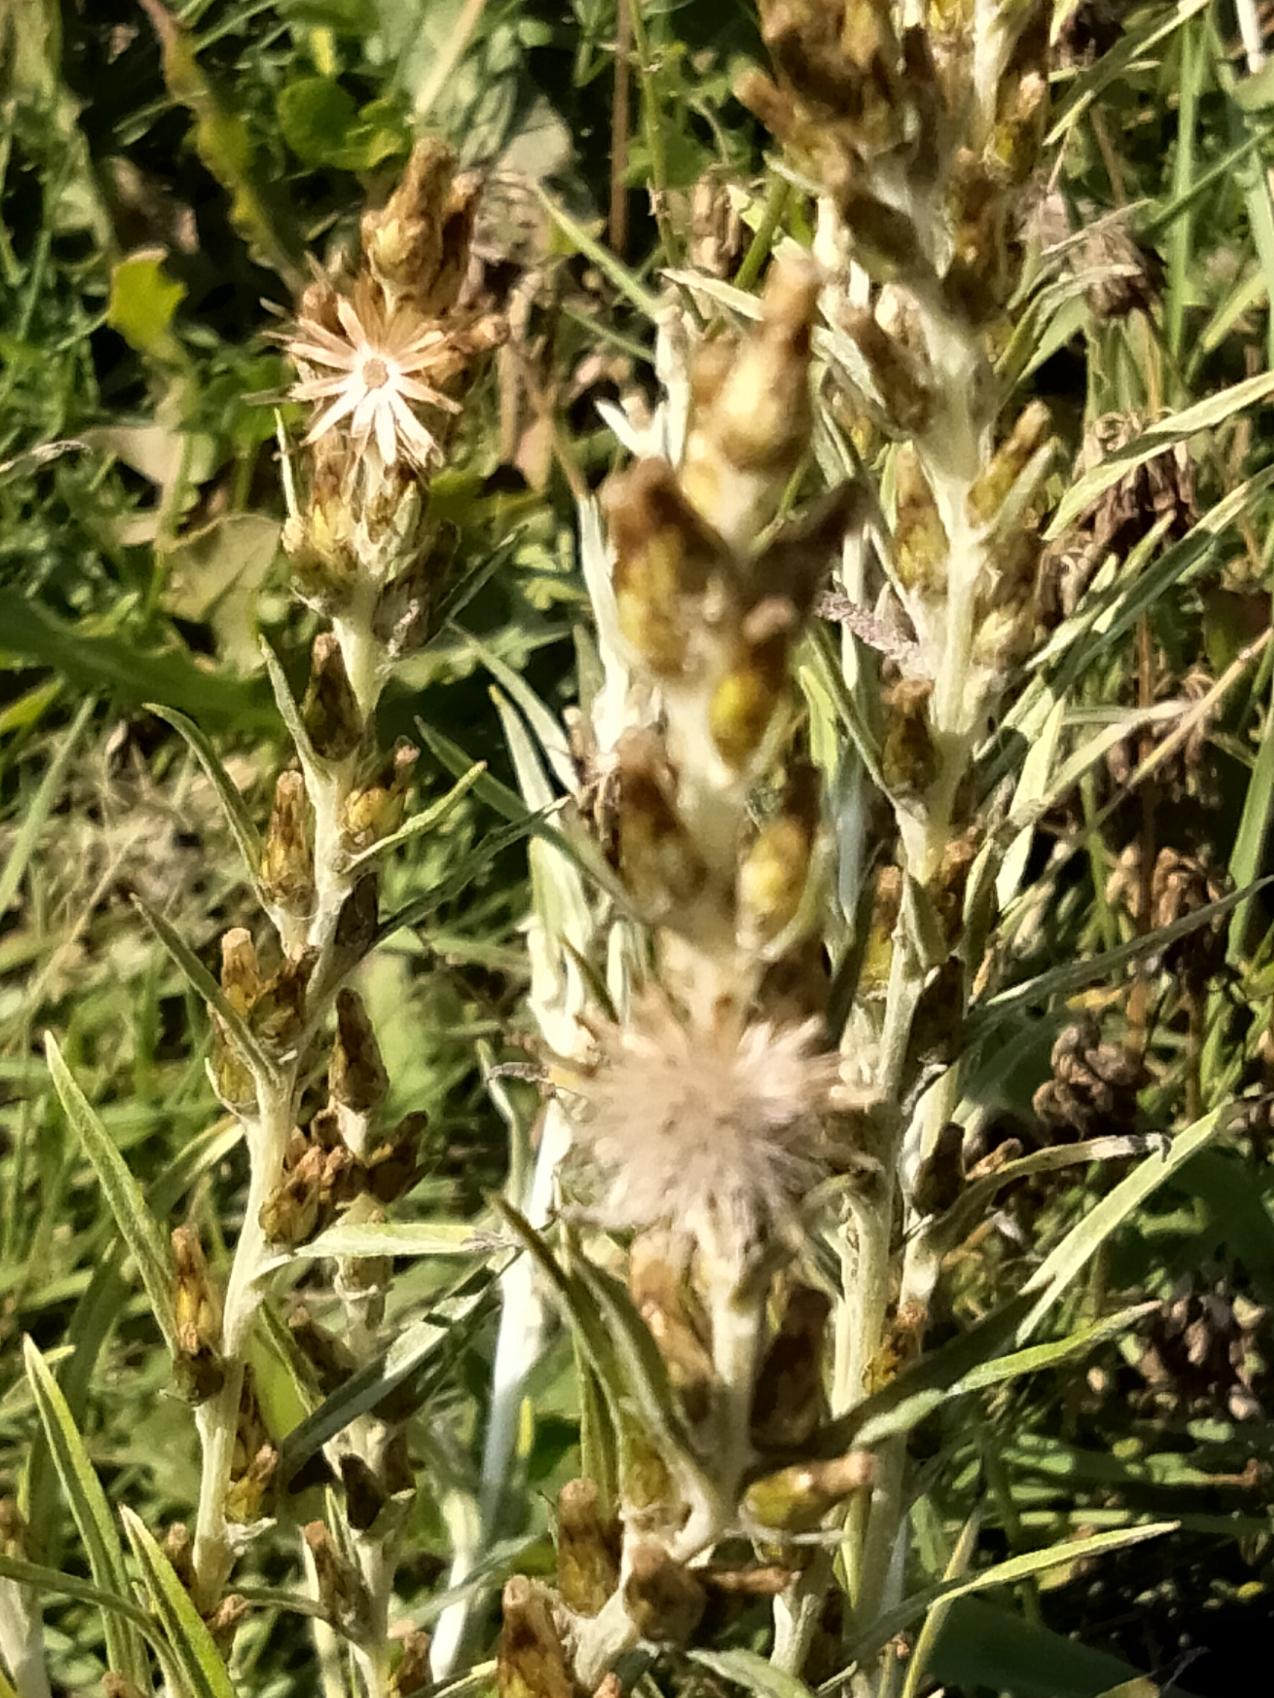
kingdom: Plantae
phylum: Tracheophyta
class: Magnoliopsida
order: Asterales
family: Asteraceae
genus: Omalotheca
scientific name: Omalotheca sylvatica
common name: Rank evighedsblomst
